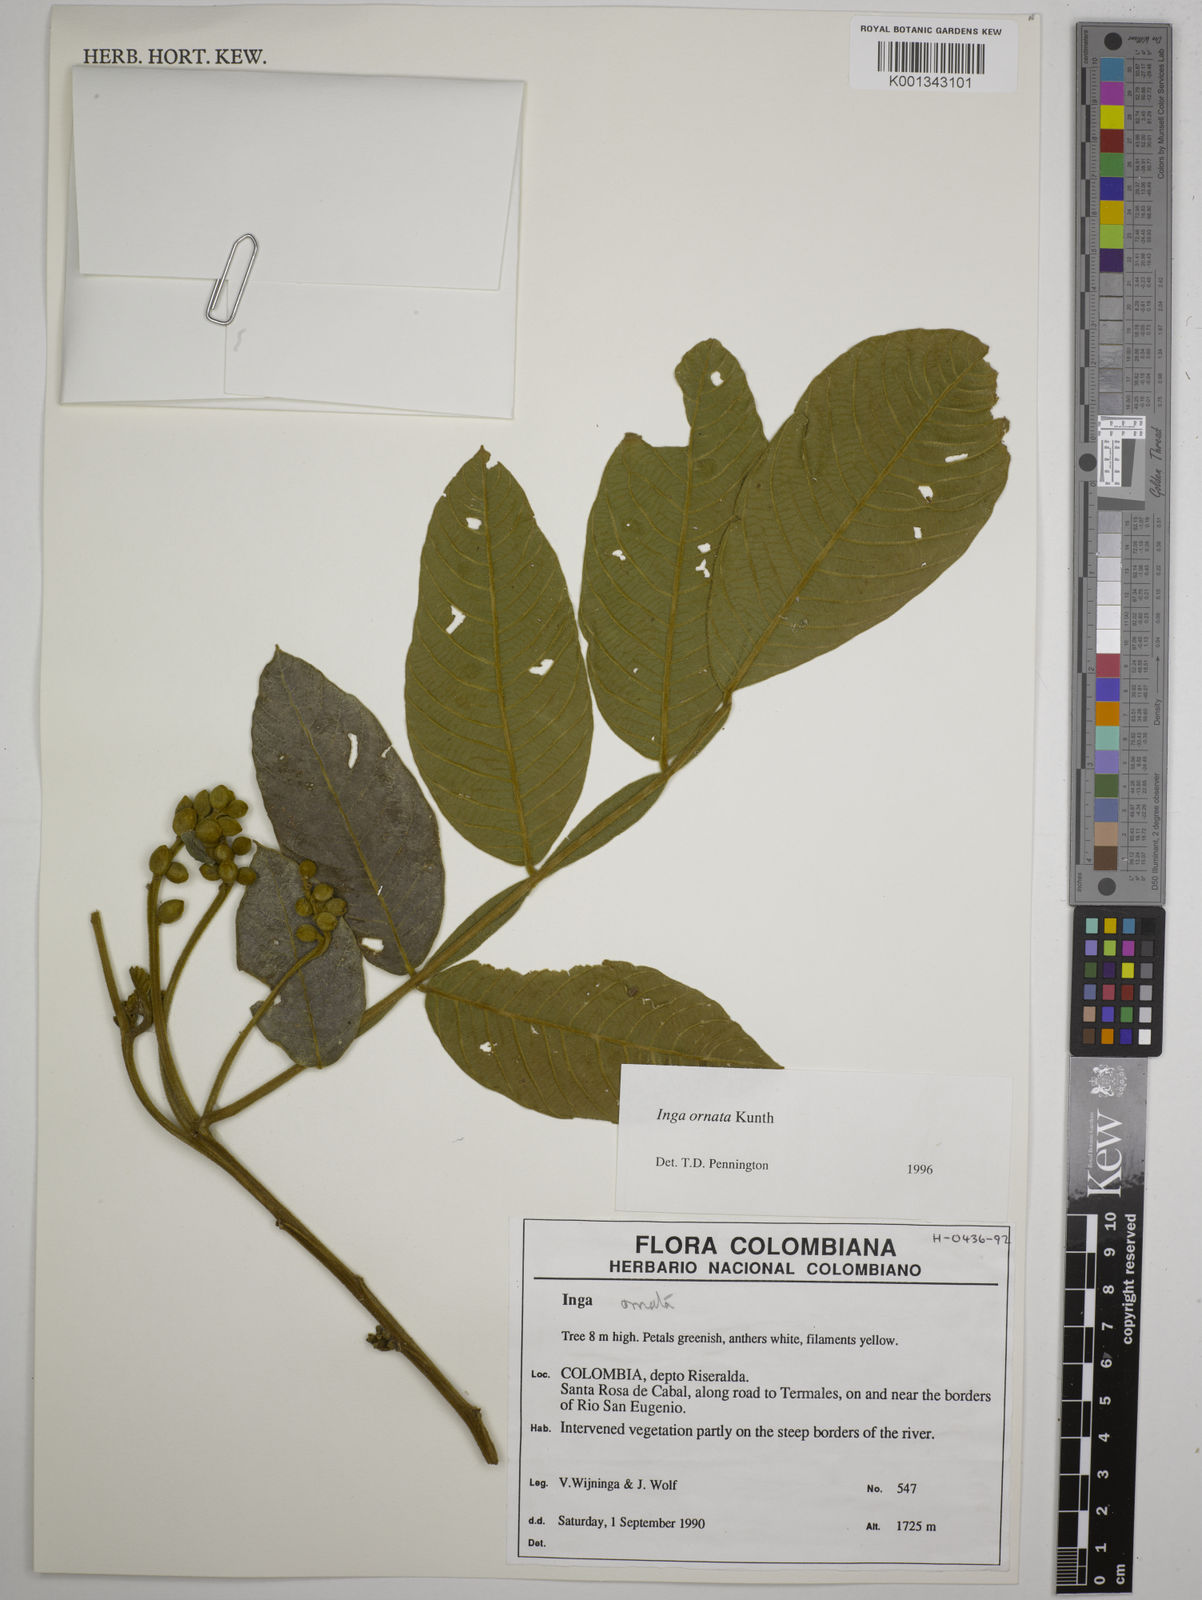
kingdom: Plantae
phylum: Tracheophyta
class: Magnoliopsida
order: Fabales
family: Fabaceae
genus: Inga
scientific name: Inga ornata
